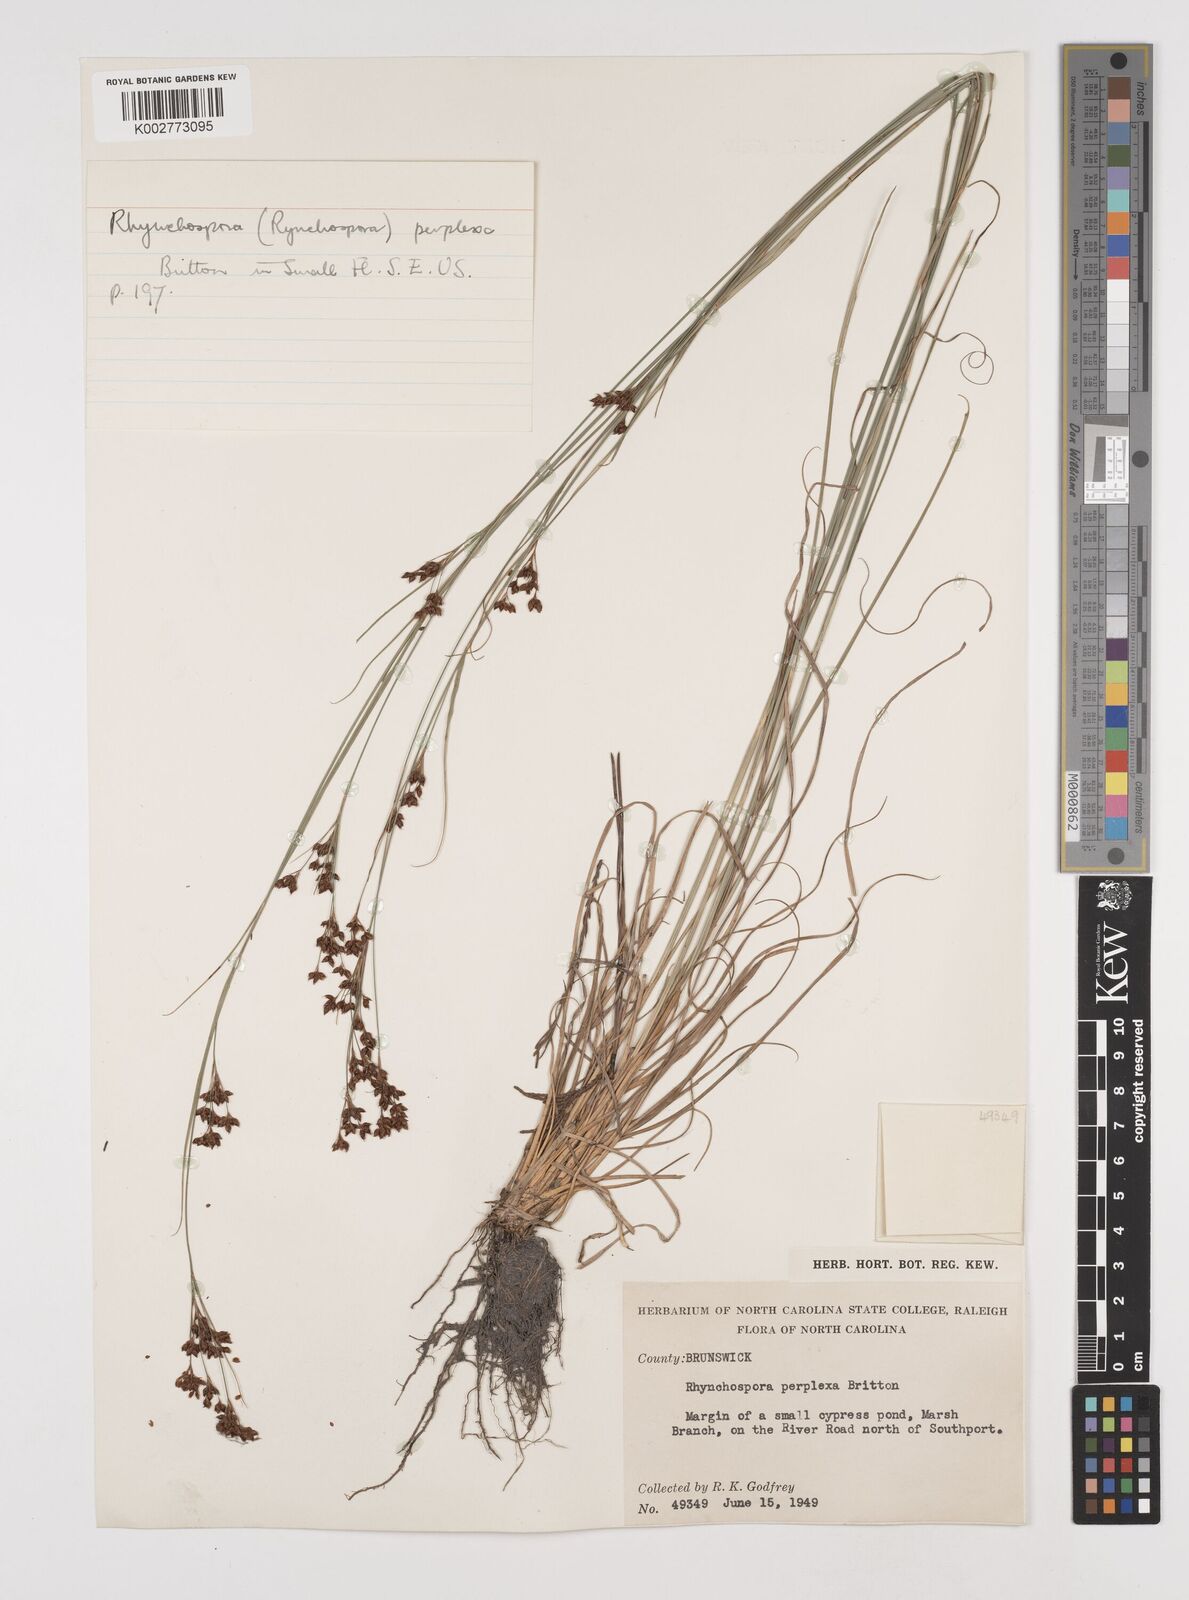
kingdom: Plantae
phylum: Tracheophyta
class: Liliopsida
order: Poales
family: Cyperaceae
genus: Rhynchospora
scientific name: Rhynchospora perplexa
